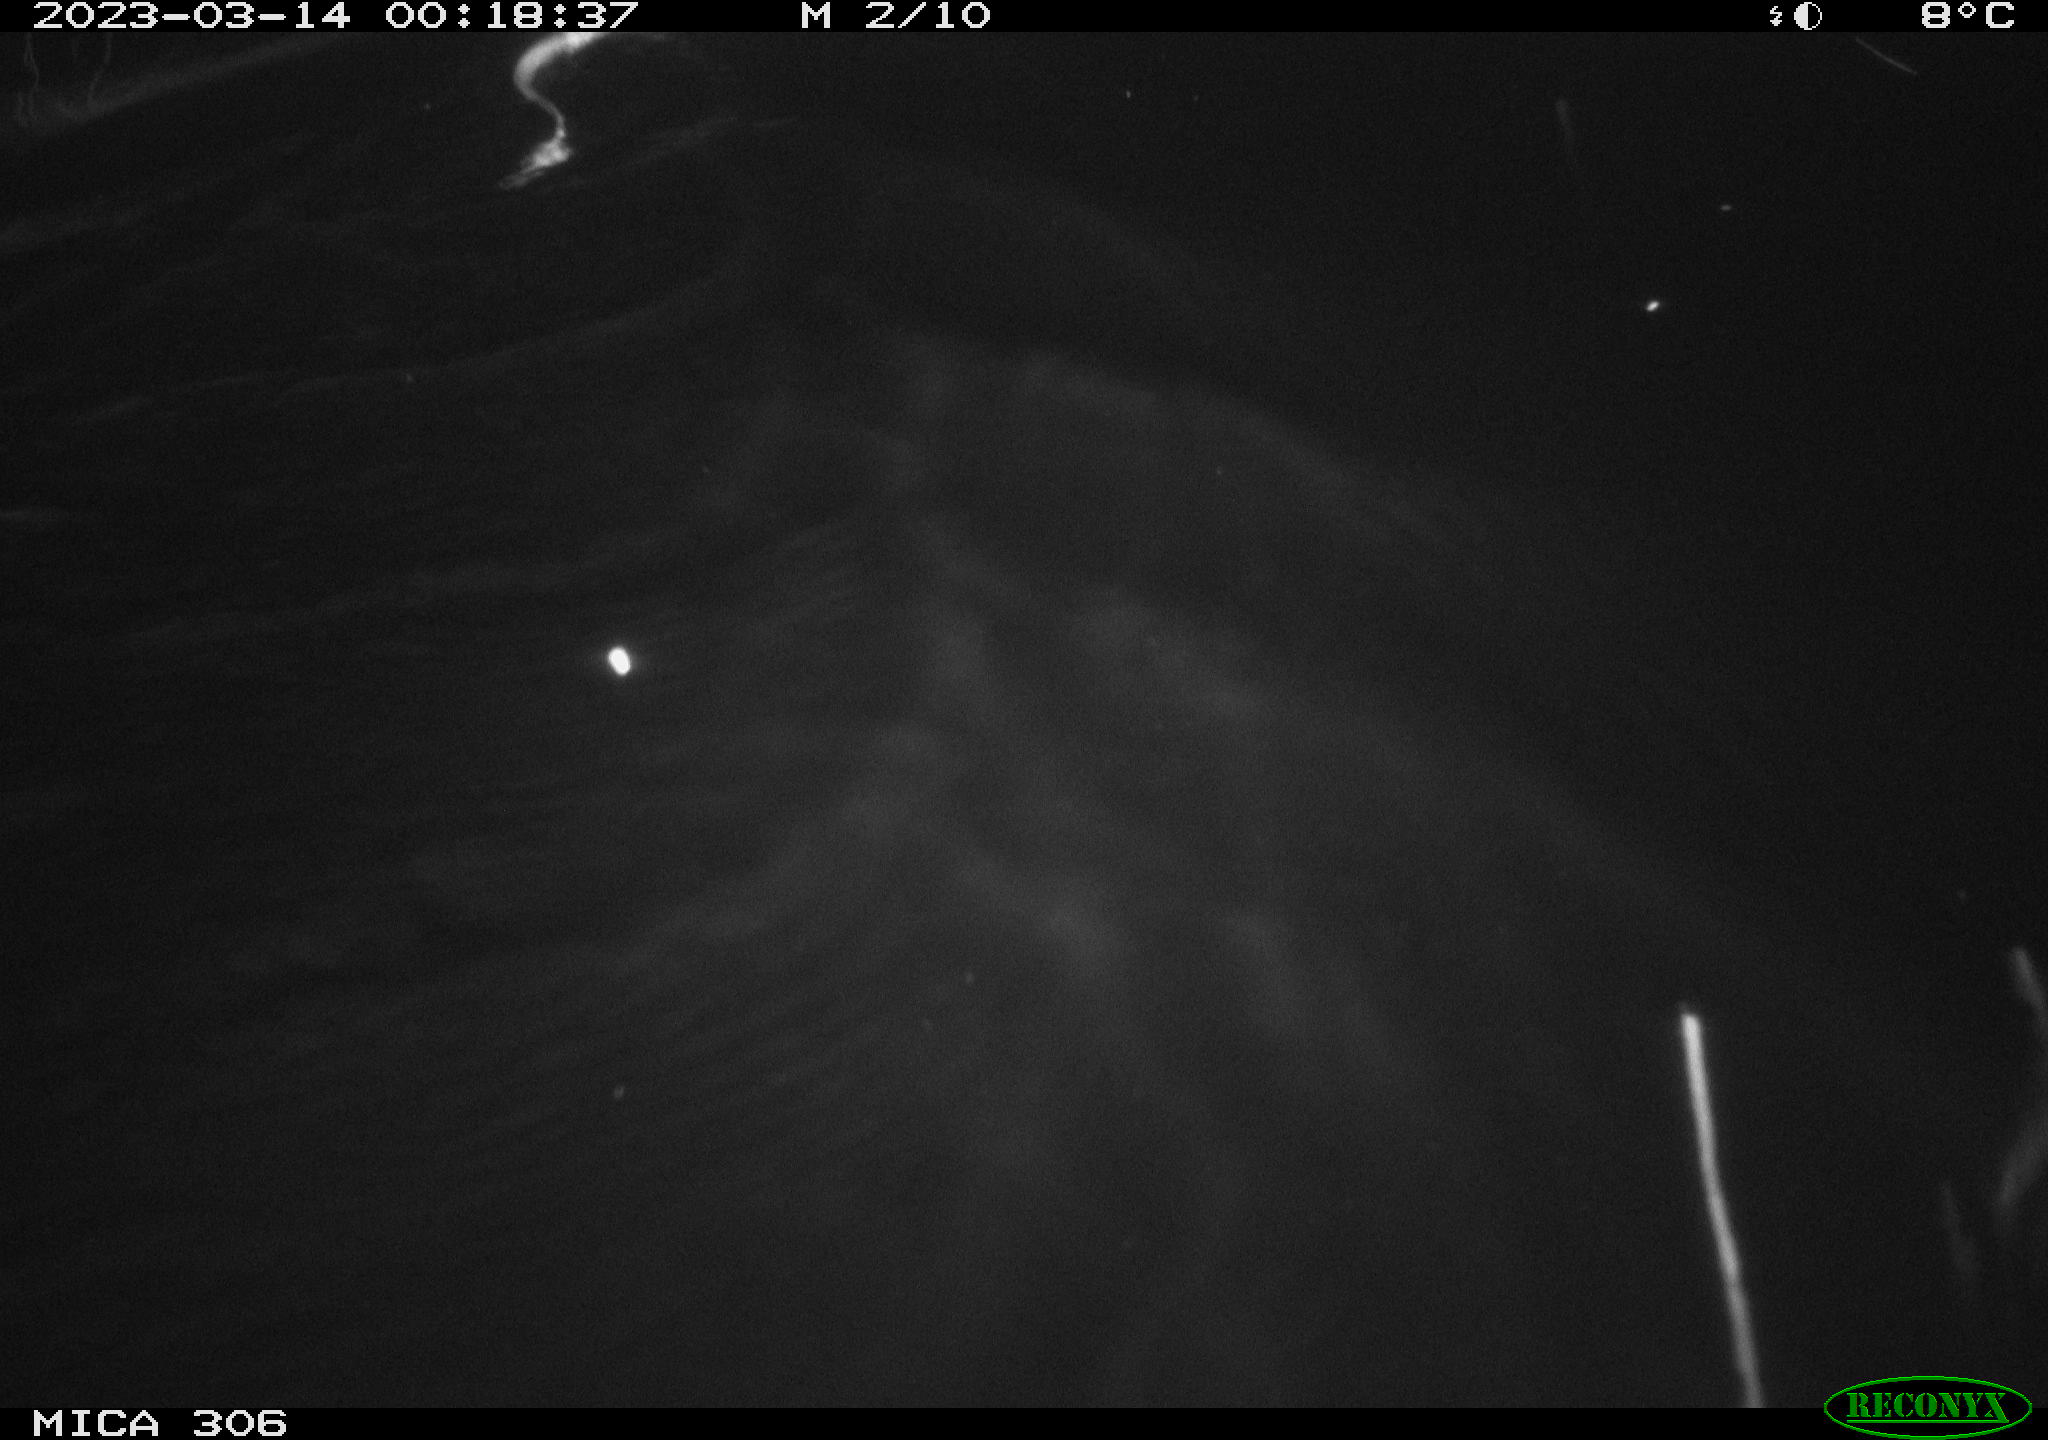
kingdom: Animalia
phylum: Chordata
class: Mammalia
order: Rodentia
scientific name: Rodentia
